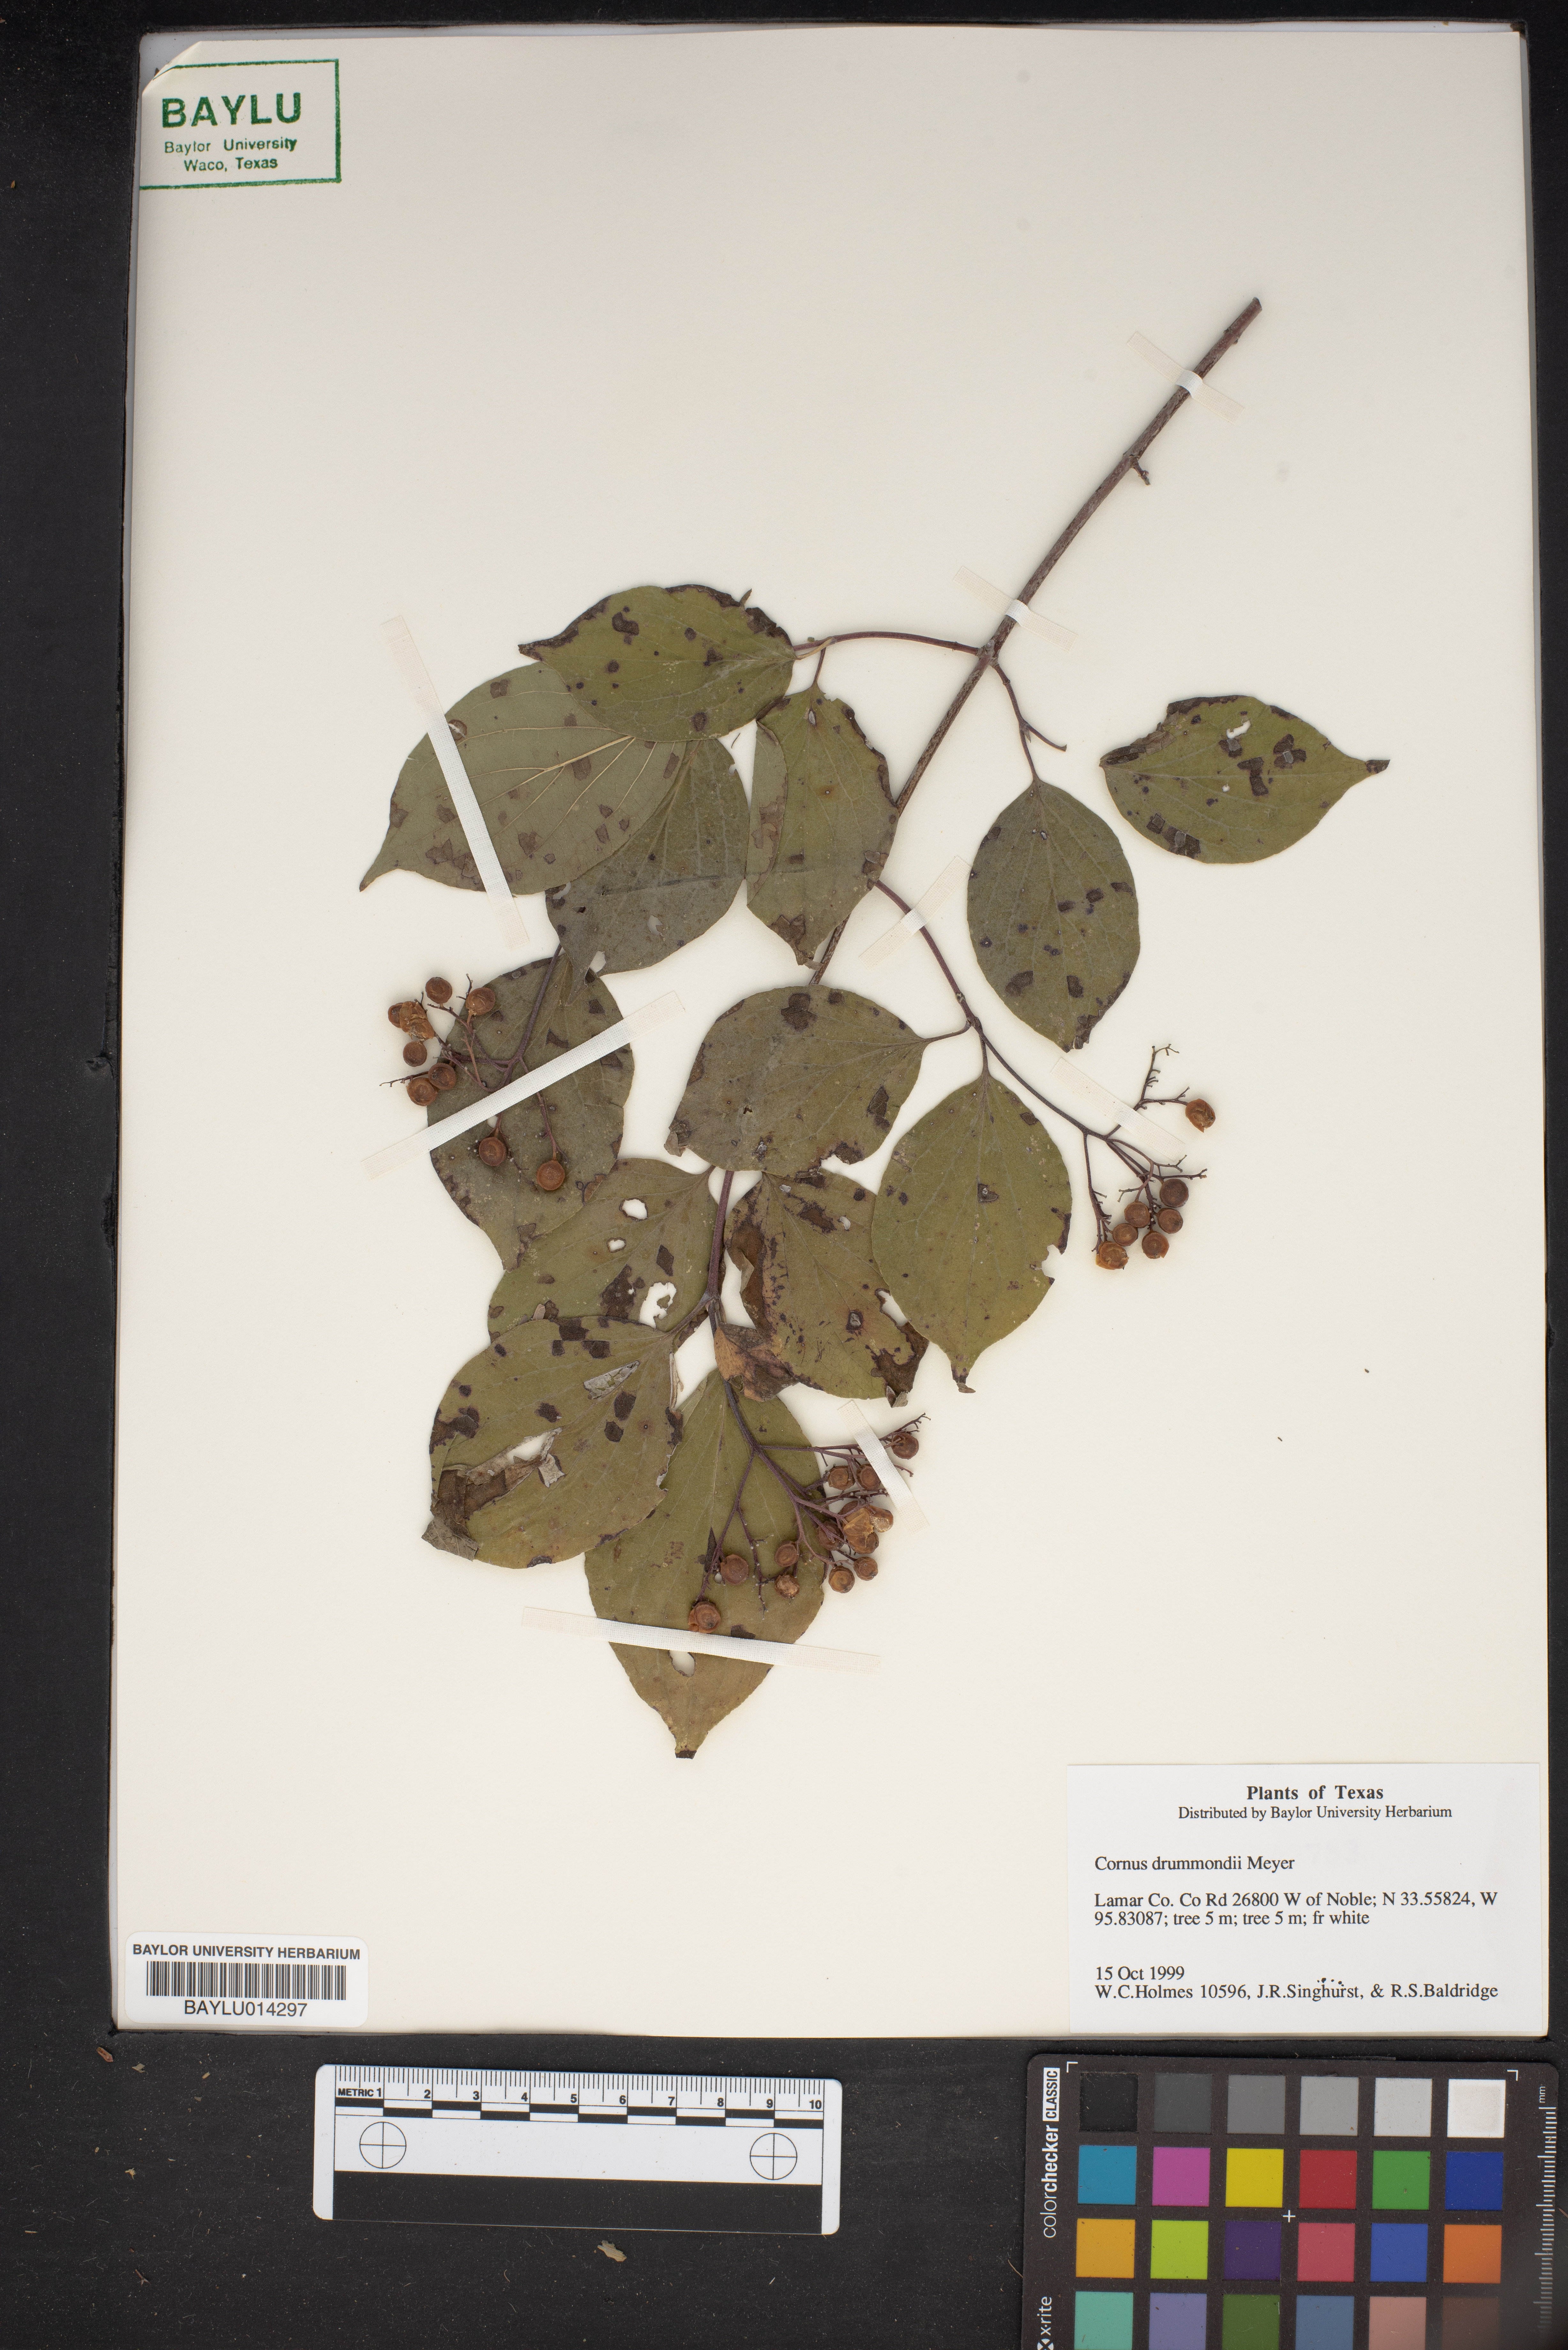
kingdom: Plantae
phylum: Tracheophyta
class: Magnoliopsida
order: Cornales
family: Cornaceae
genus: Cornus
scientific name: Cornus drummondii
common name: Rough-leaf dogwood
